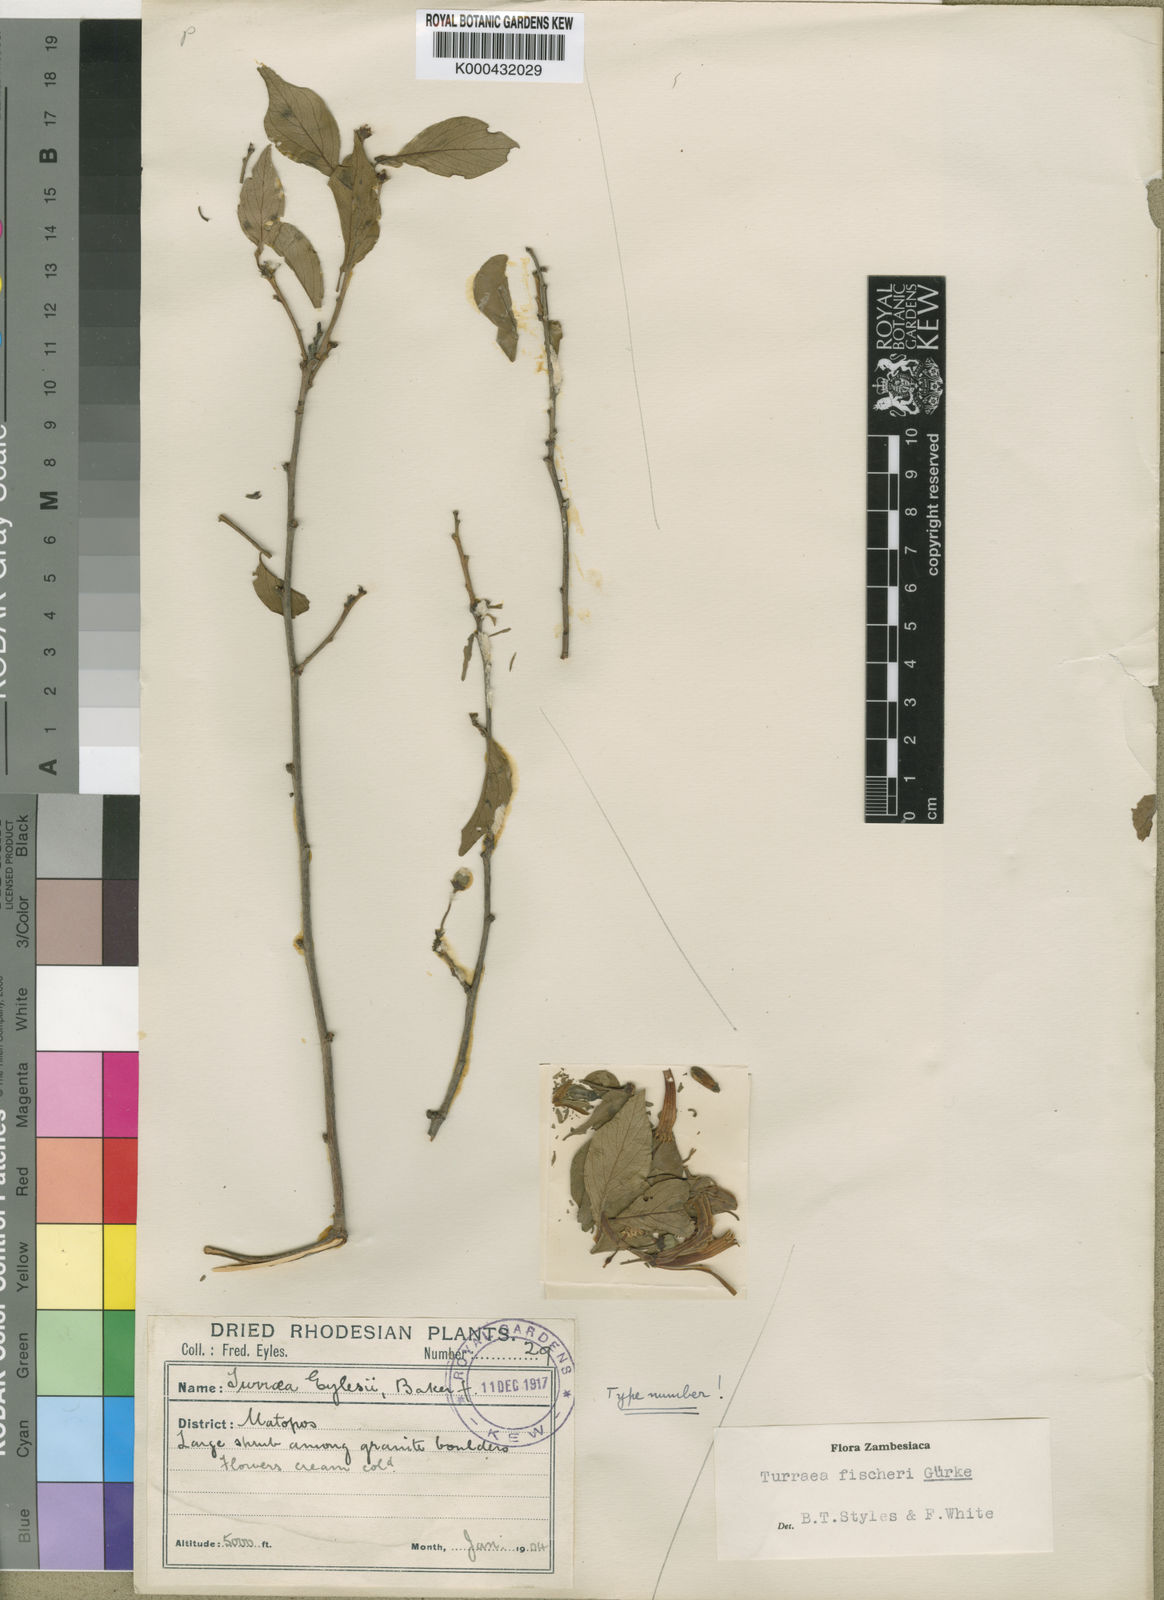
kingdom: Plantae
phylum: Tracheophyta
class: Magnoliopsida
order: Sapindales
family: Meliaceae
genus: Turraea
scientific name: Turraea
